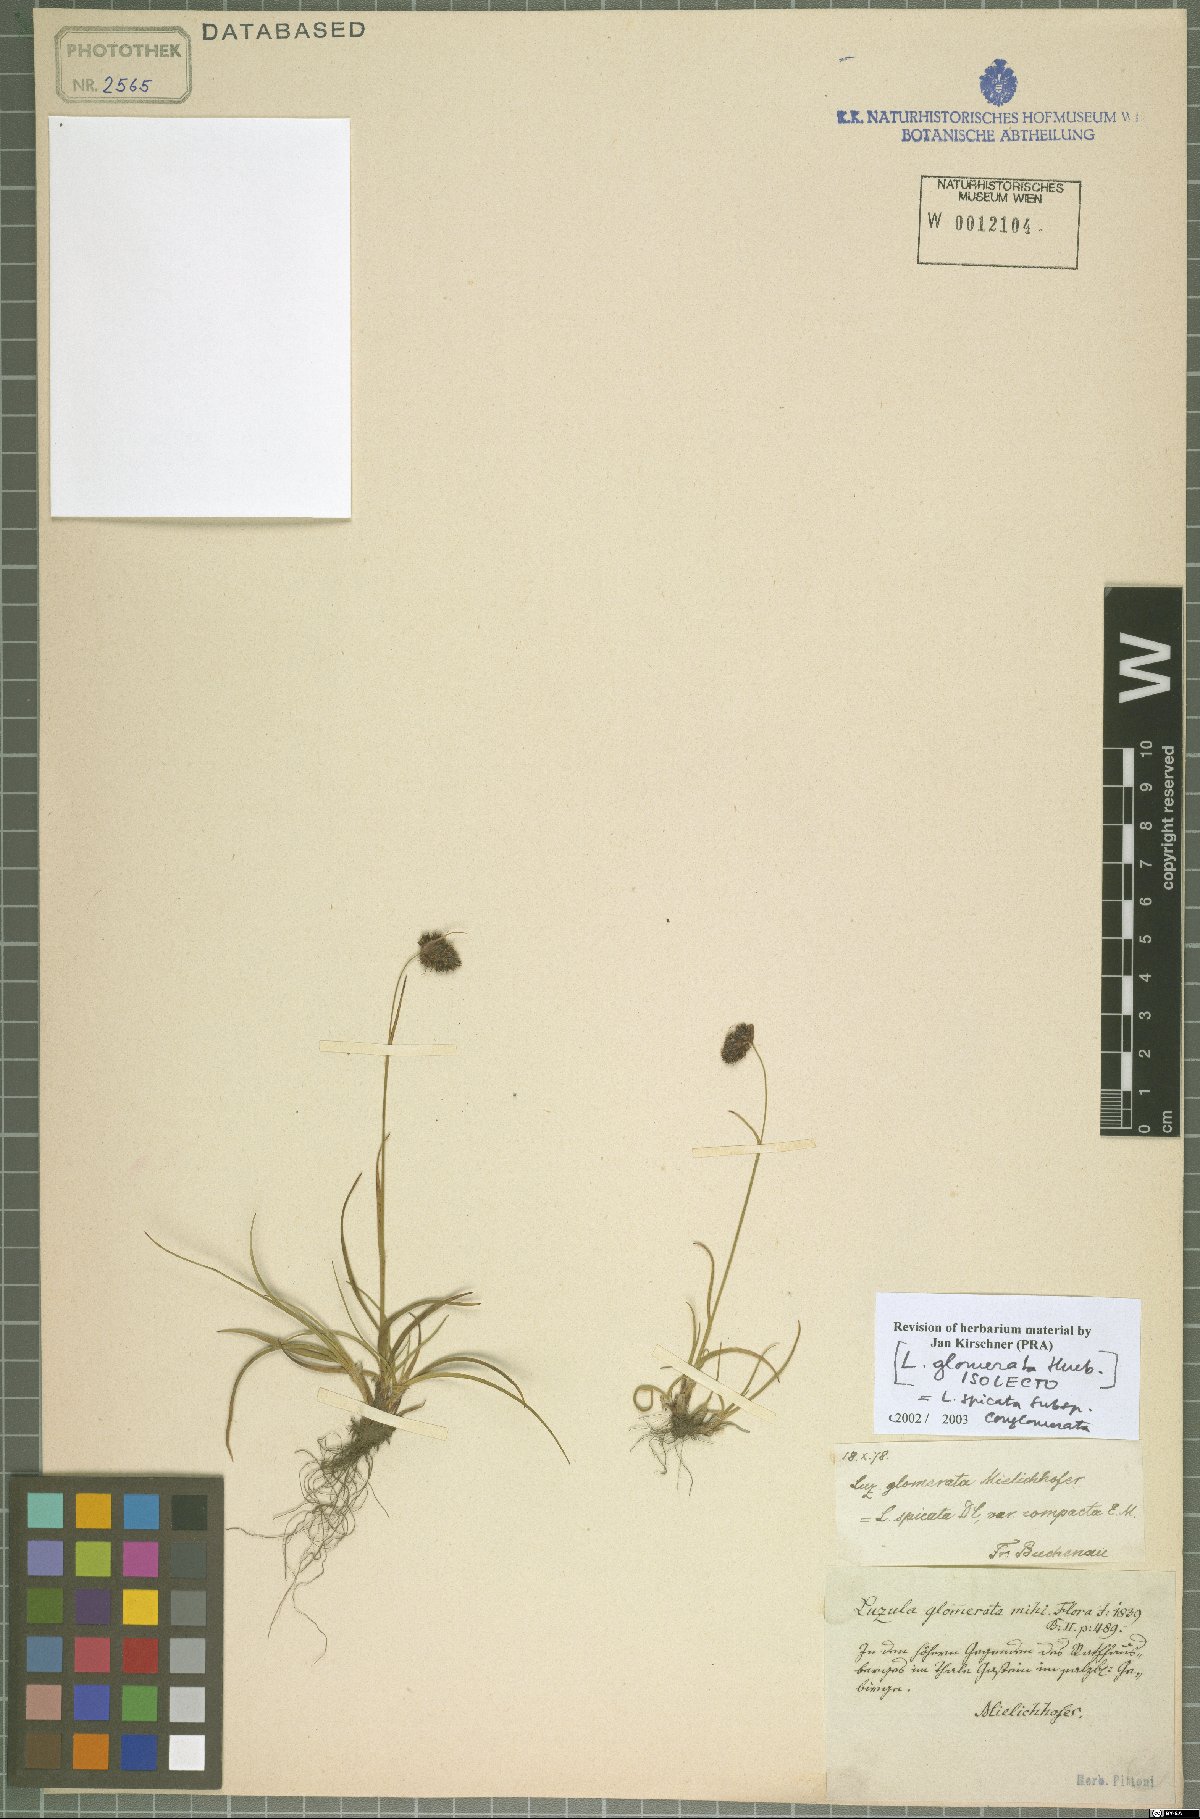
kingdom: Plantae
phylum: Tracheophyta
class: Liliopsida
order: Poales
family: Juncaceae
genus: Luzula
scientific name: Luzula spicata
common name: Spiked wood-rush
